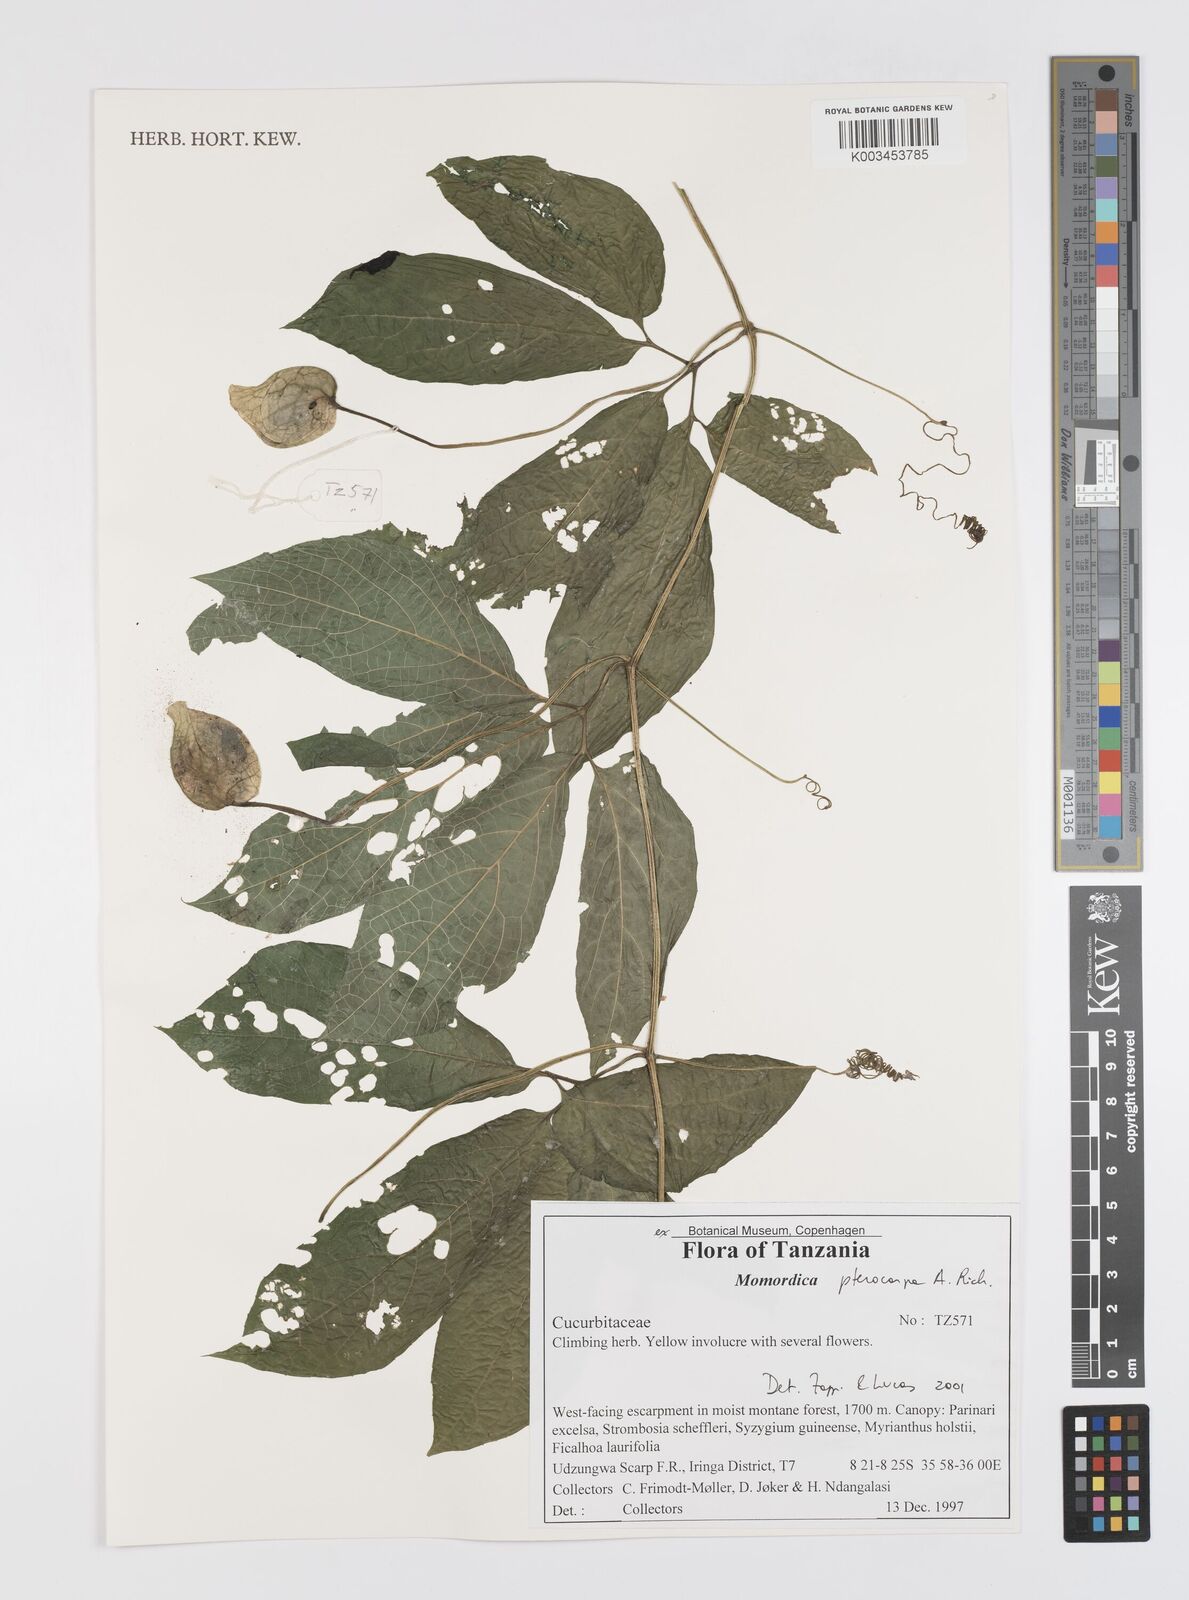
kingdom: Plantae
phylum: Tracheophyta
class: Magnoliopsida
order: Cucurbitales
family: Cucurbitaceae
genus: Momordica
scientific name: Momordica pterocarpa
